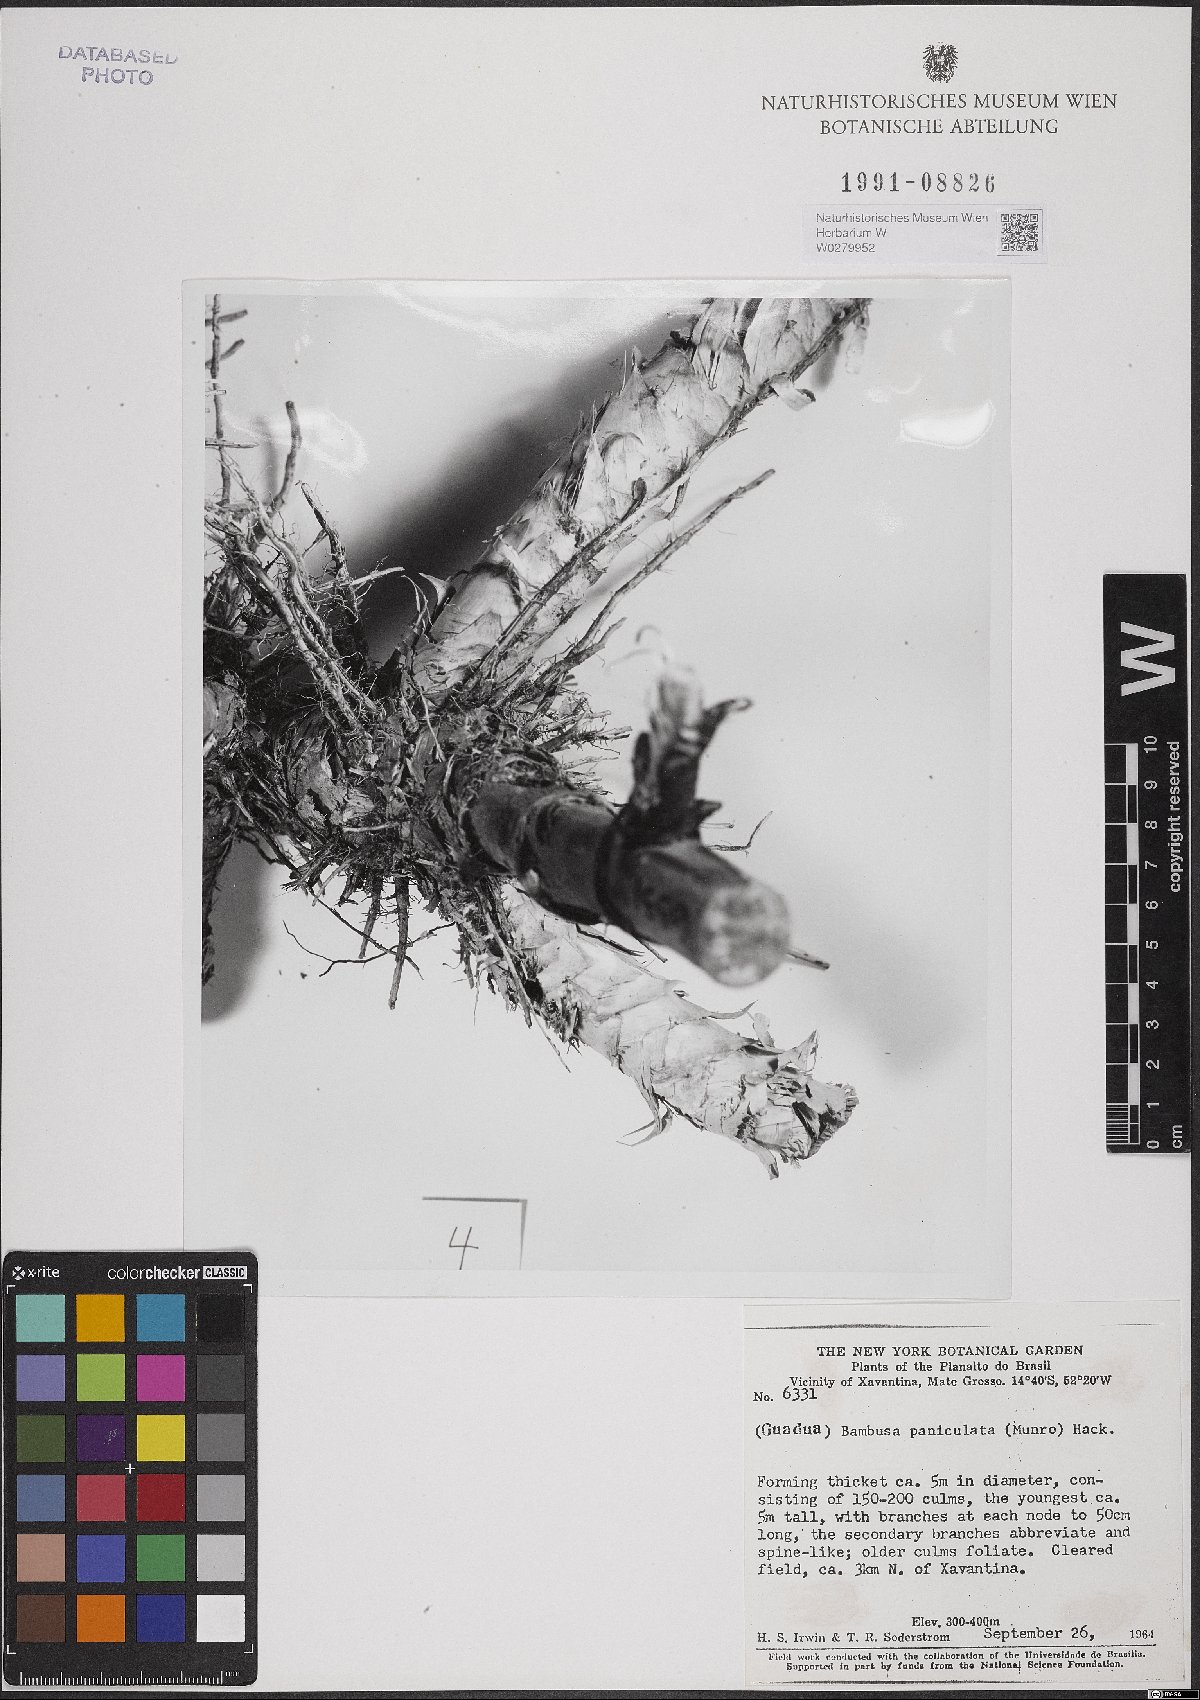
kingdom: Plantae
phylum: Tracheophyta
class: Liliopsida
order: Poales
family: Poaceae
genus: Guadua
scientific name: Guadua paniculata
